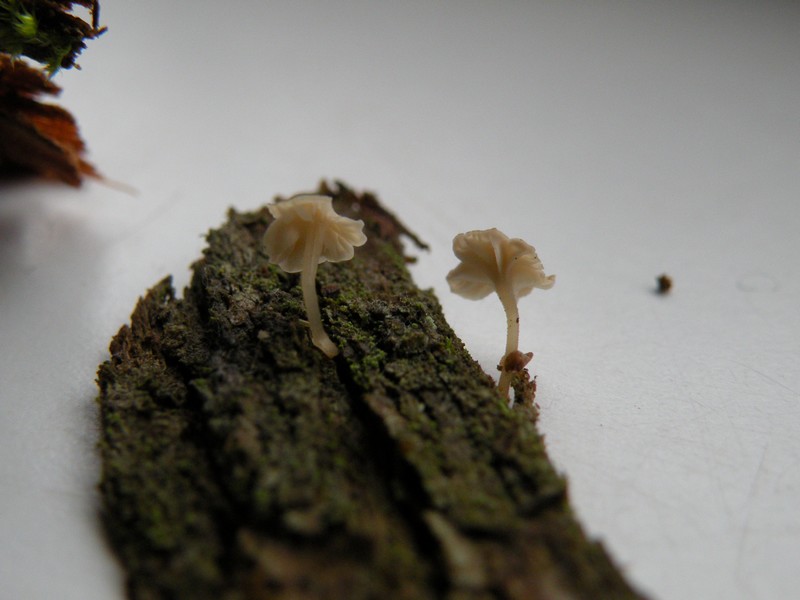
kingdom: Fungi
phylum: Basidiomycota
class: Agaricomycetes
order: Agaricales
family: Porotheleaceae
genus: Phloeomana
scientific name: Phloeomana speirea
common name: kvist-huesvamp
